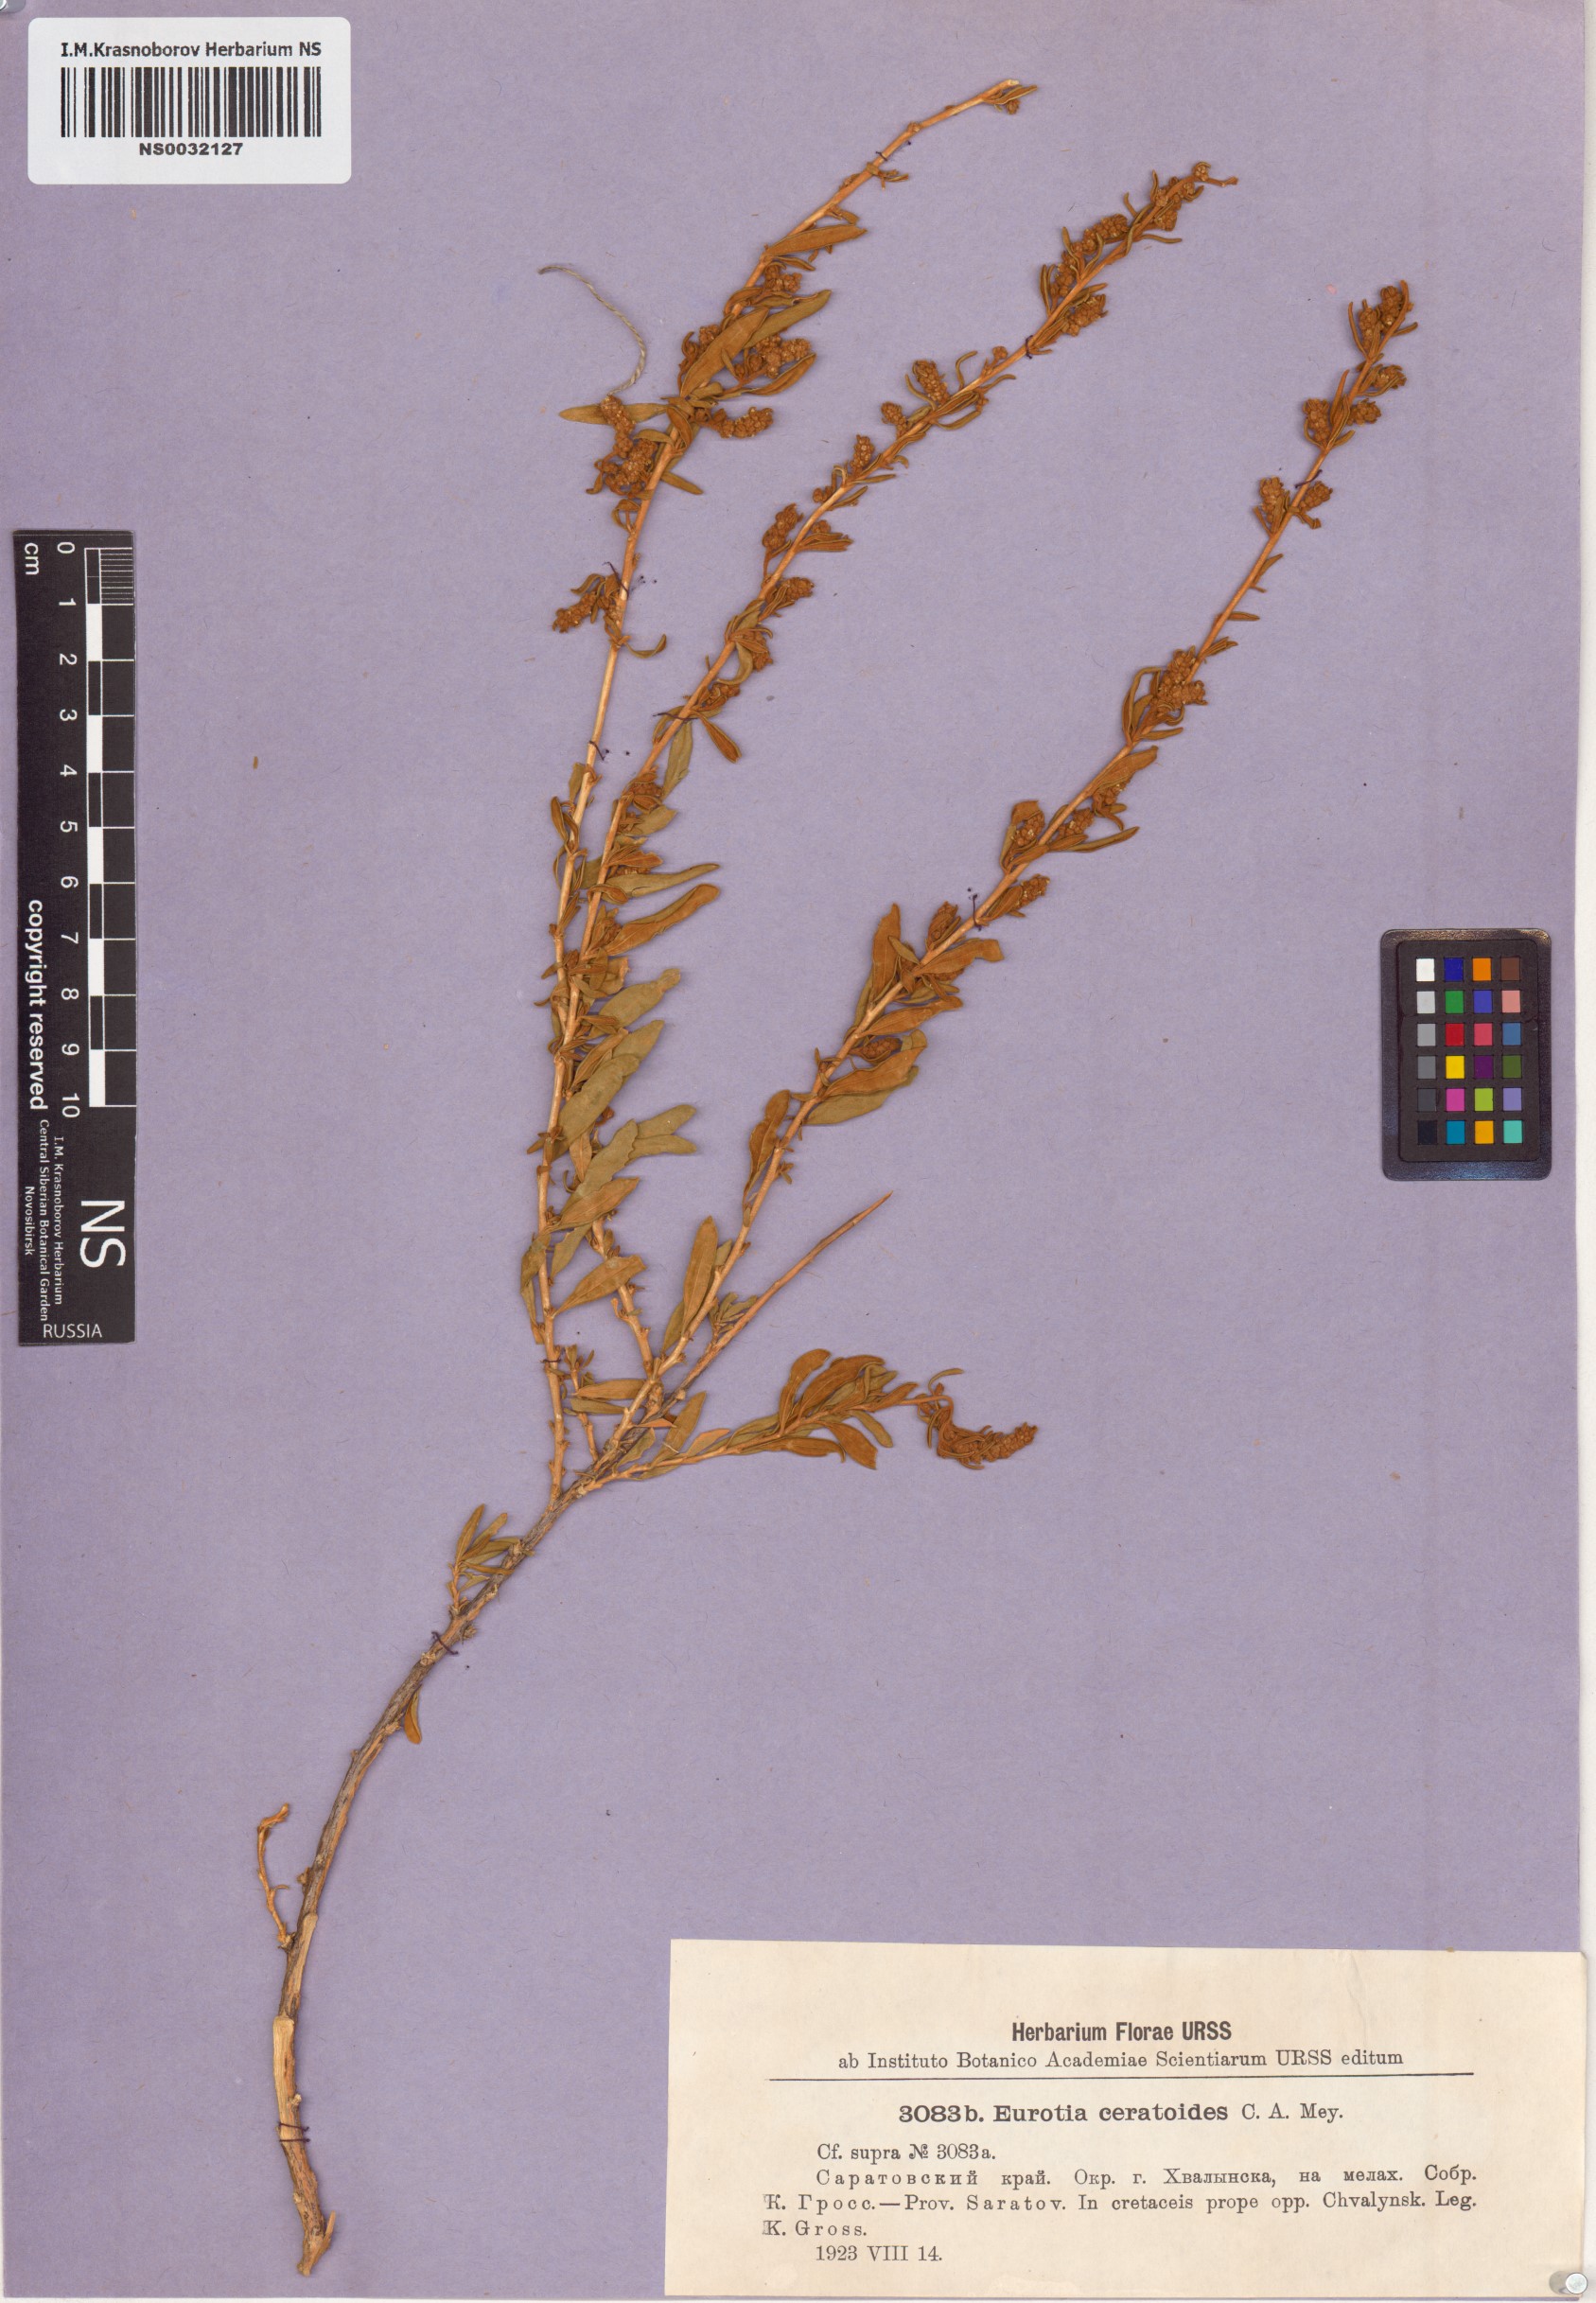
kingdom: Plantae
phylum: Tracheophyta
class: Magnoliopsida
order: Caryophyllales
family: Amaranthaceae
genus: Krascheninnikovia
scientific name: Krascheninnikovia ceratoides
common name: Pamirian winterfat
